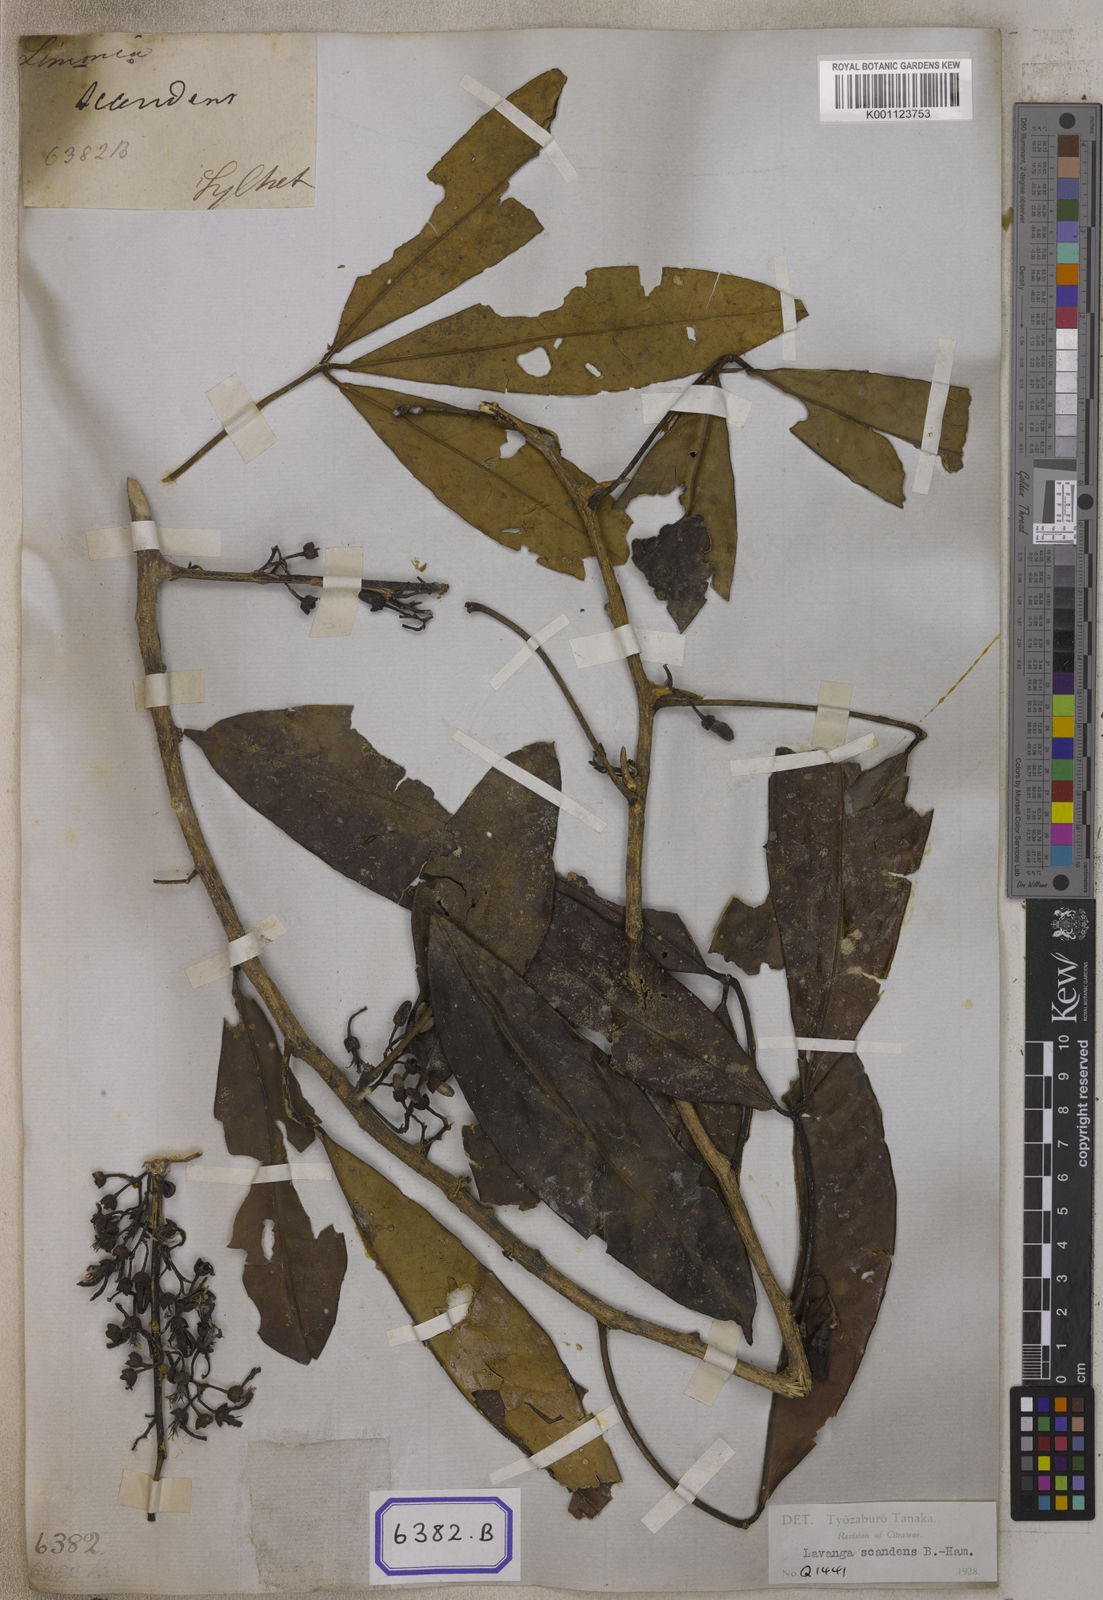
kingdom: Plantae
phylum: Tracheophyta
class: Magnoliopsida
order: Sapindales
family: Rutaceae
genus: Luvunga
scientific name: Luvunga scandens
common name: Indian luvunga
